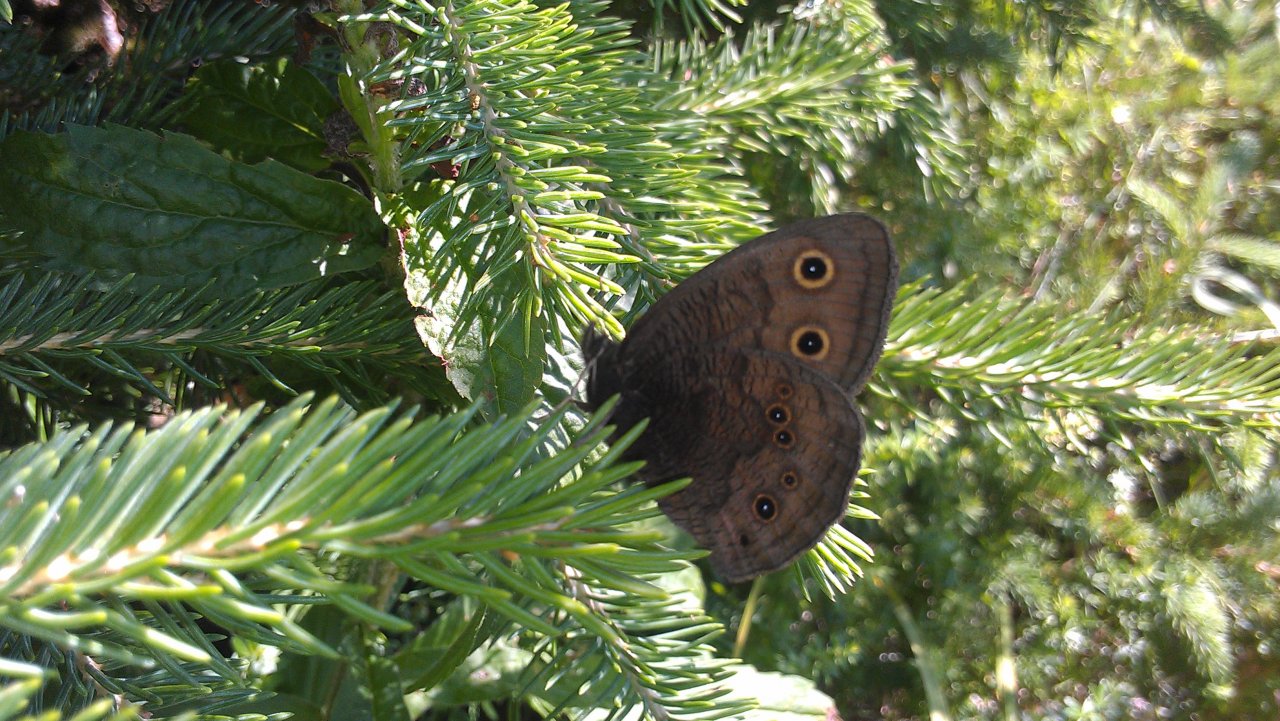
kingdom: Animalia
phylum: Arthropoda
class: Insecta
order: Lepidoptera
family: Nymphalidae
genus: Cercyonis
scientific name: Cercyonis pegala
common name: Common Wood-Nymph
